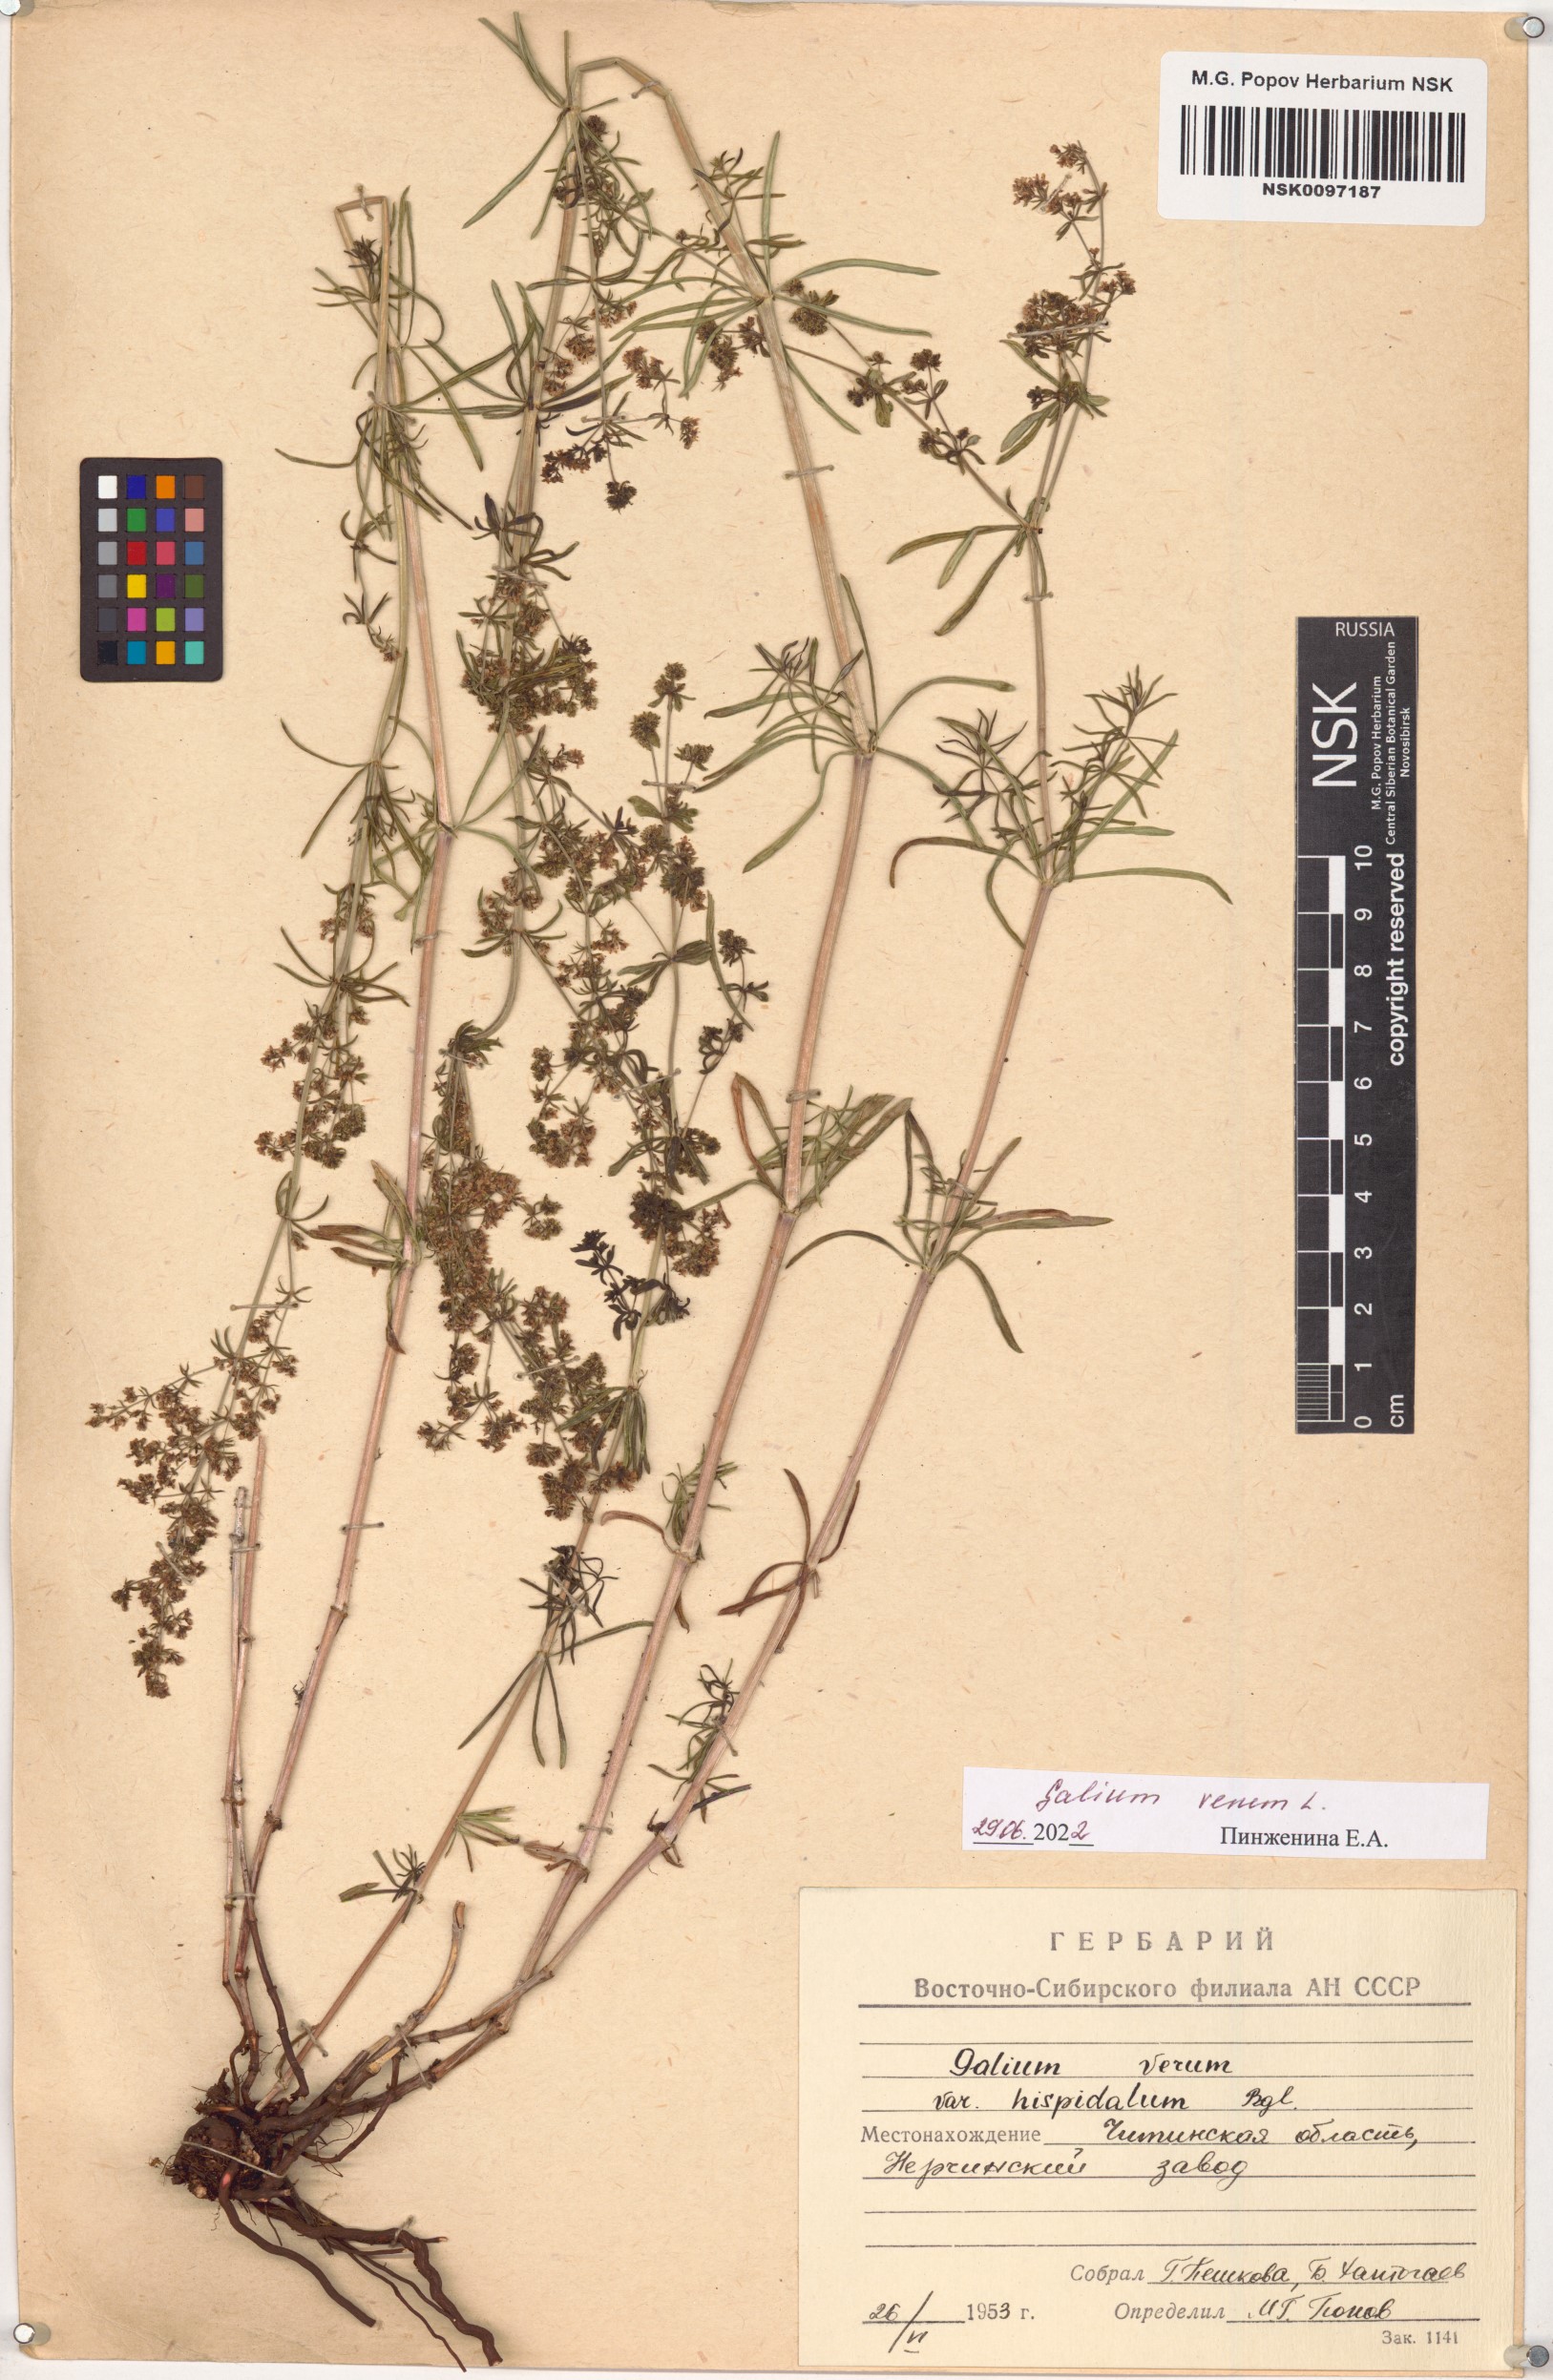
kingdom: Plantae
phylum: Tracheophyta
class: Magnoliopsida
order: Gentianales
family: Rubiaceae
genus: Galium
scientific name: Galium verum
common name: Lady's bedstraw
